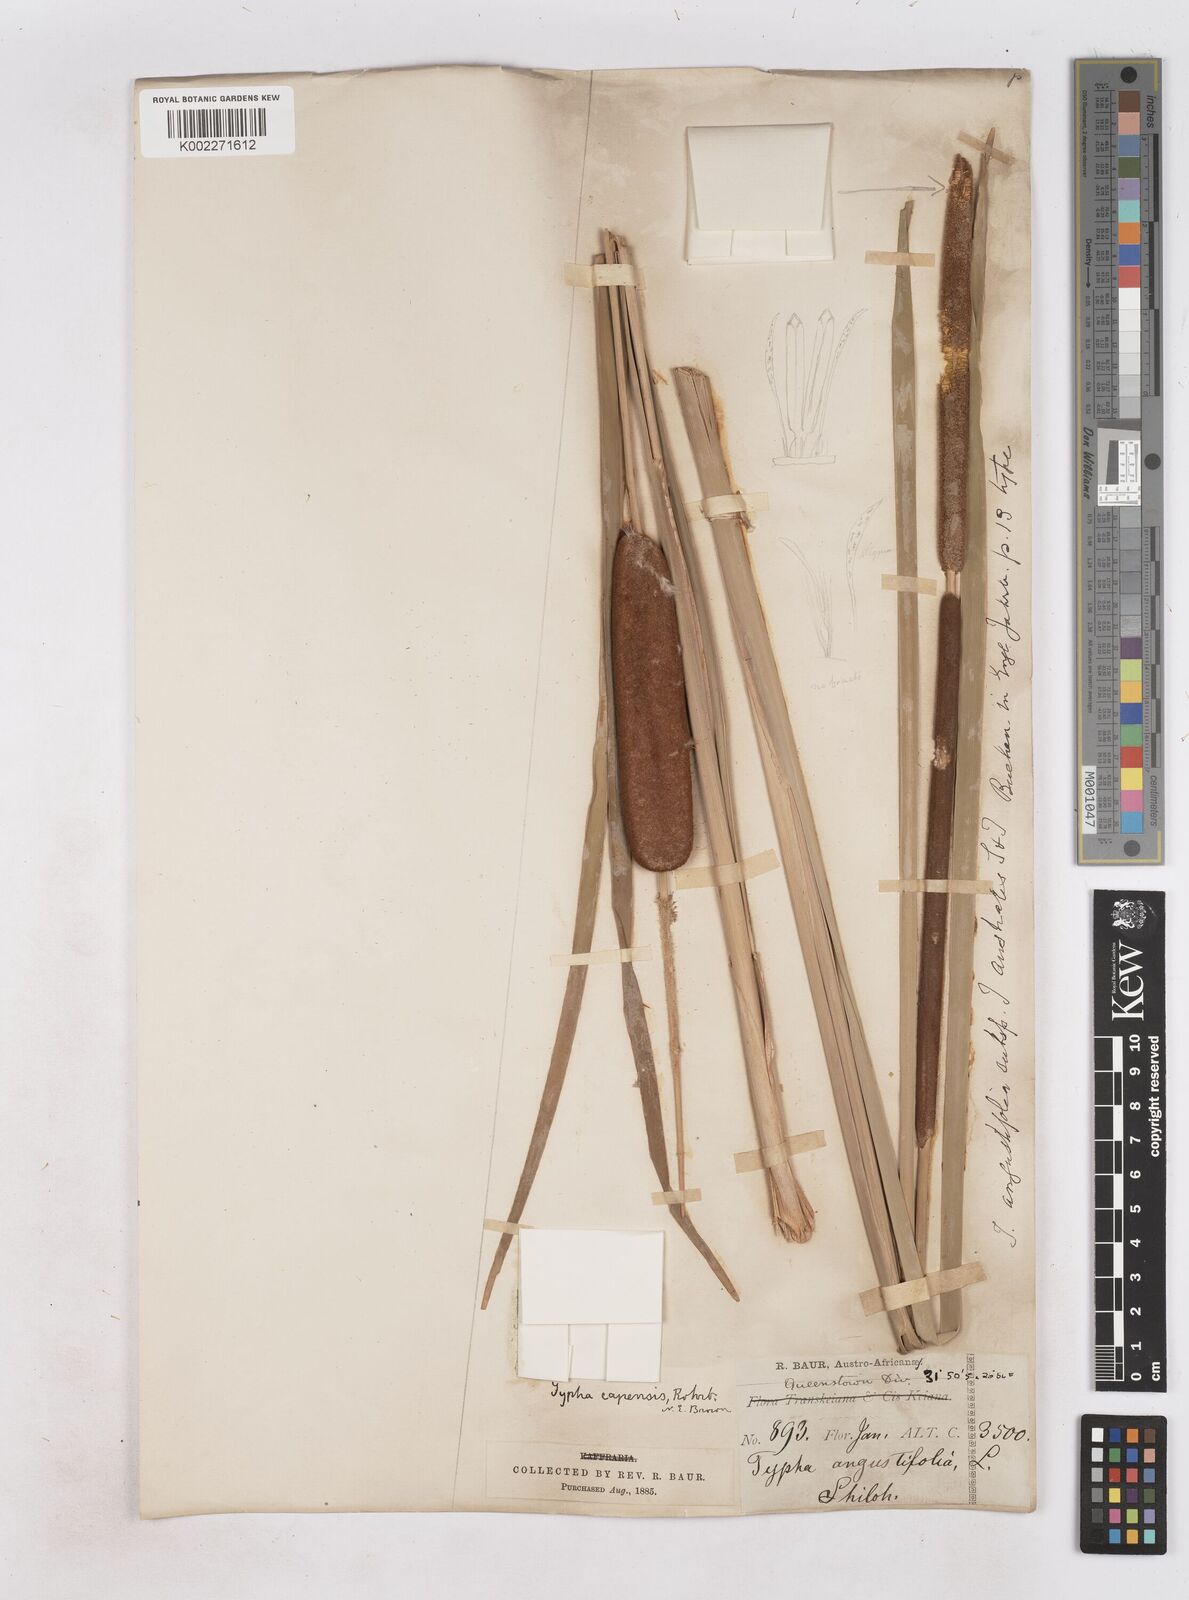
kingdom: Plantae
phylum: Tracheophyta
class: Liliopsida
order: Poales
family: Typhaceae
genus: Typha
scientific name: Typha capensis
